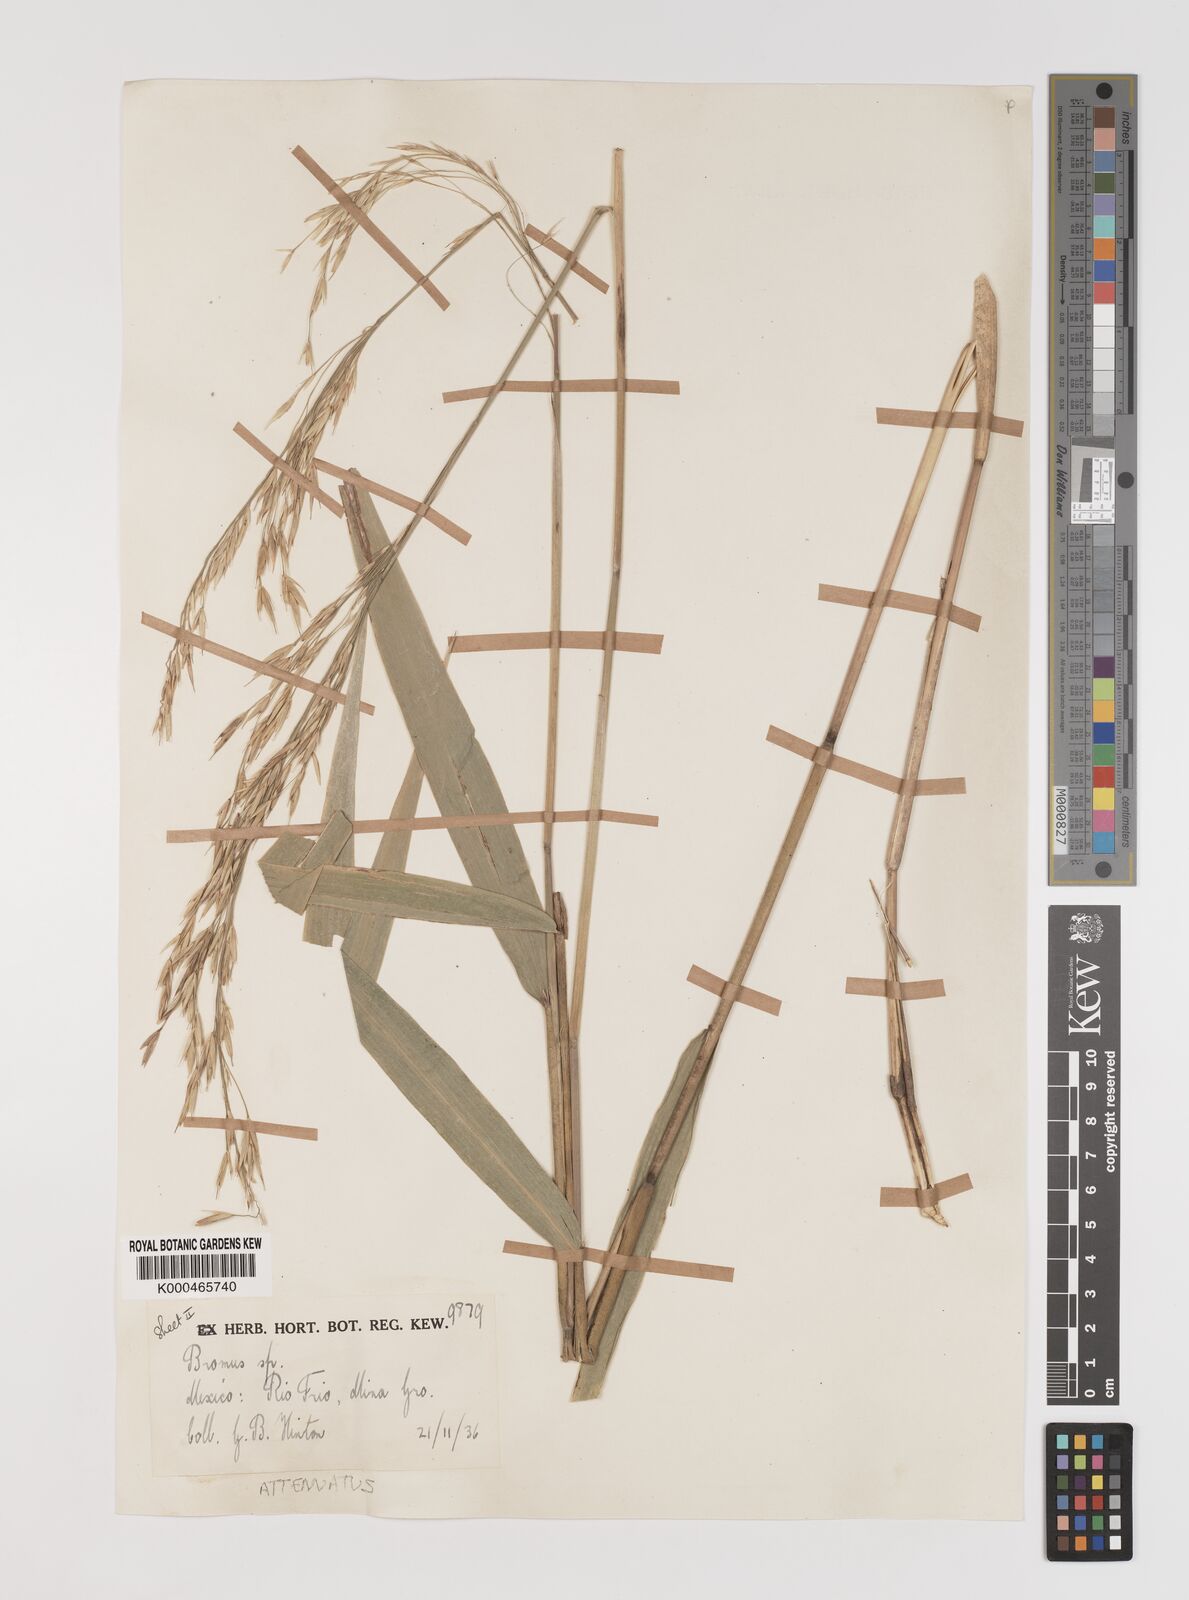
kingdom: Plantae
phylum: Tracheophyta
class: Liliopsida
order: Poales
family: Poaceae
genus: Bromus
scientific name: Bromus attenuatus
